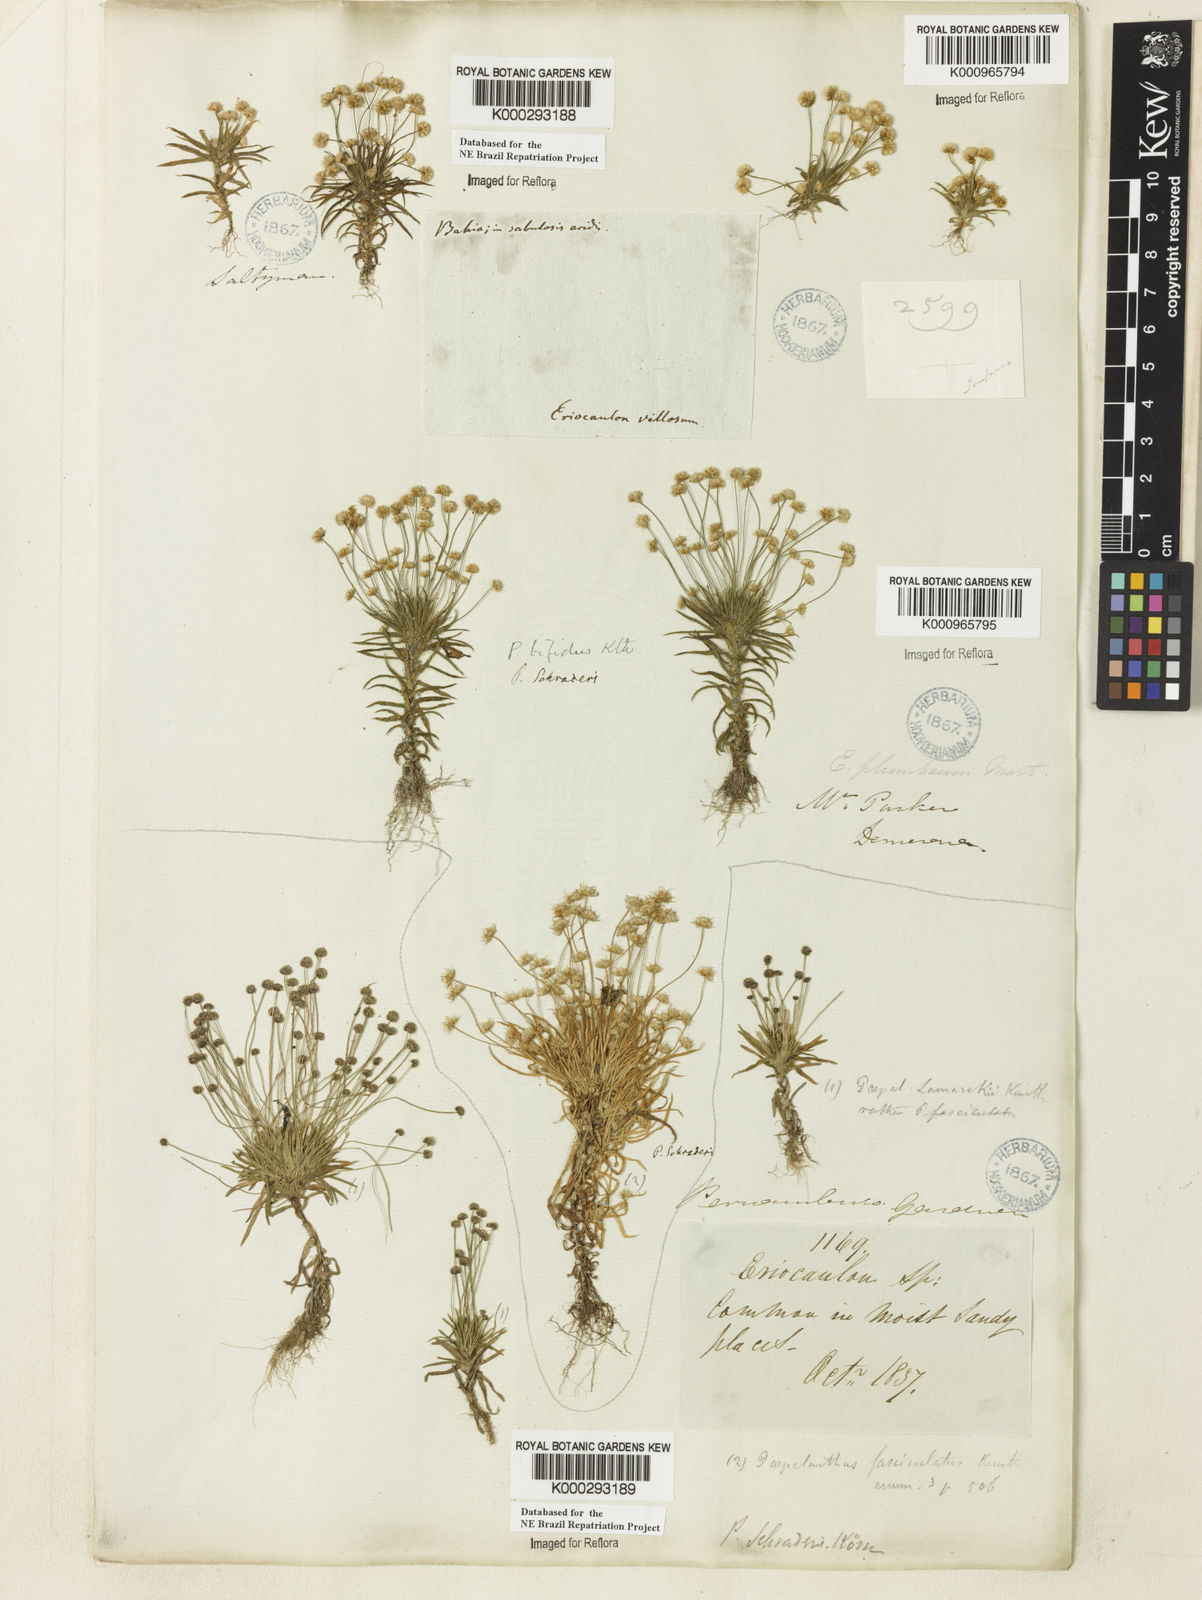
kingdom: Plantae
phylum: Tracheophyta
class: Liliopsida
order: Poales
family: Eriocaulaceae
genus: Paepalanthus
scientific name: Paepalanthus bifidus
